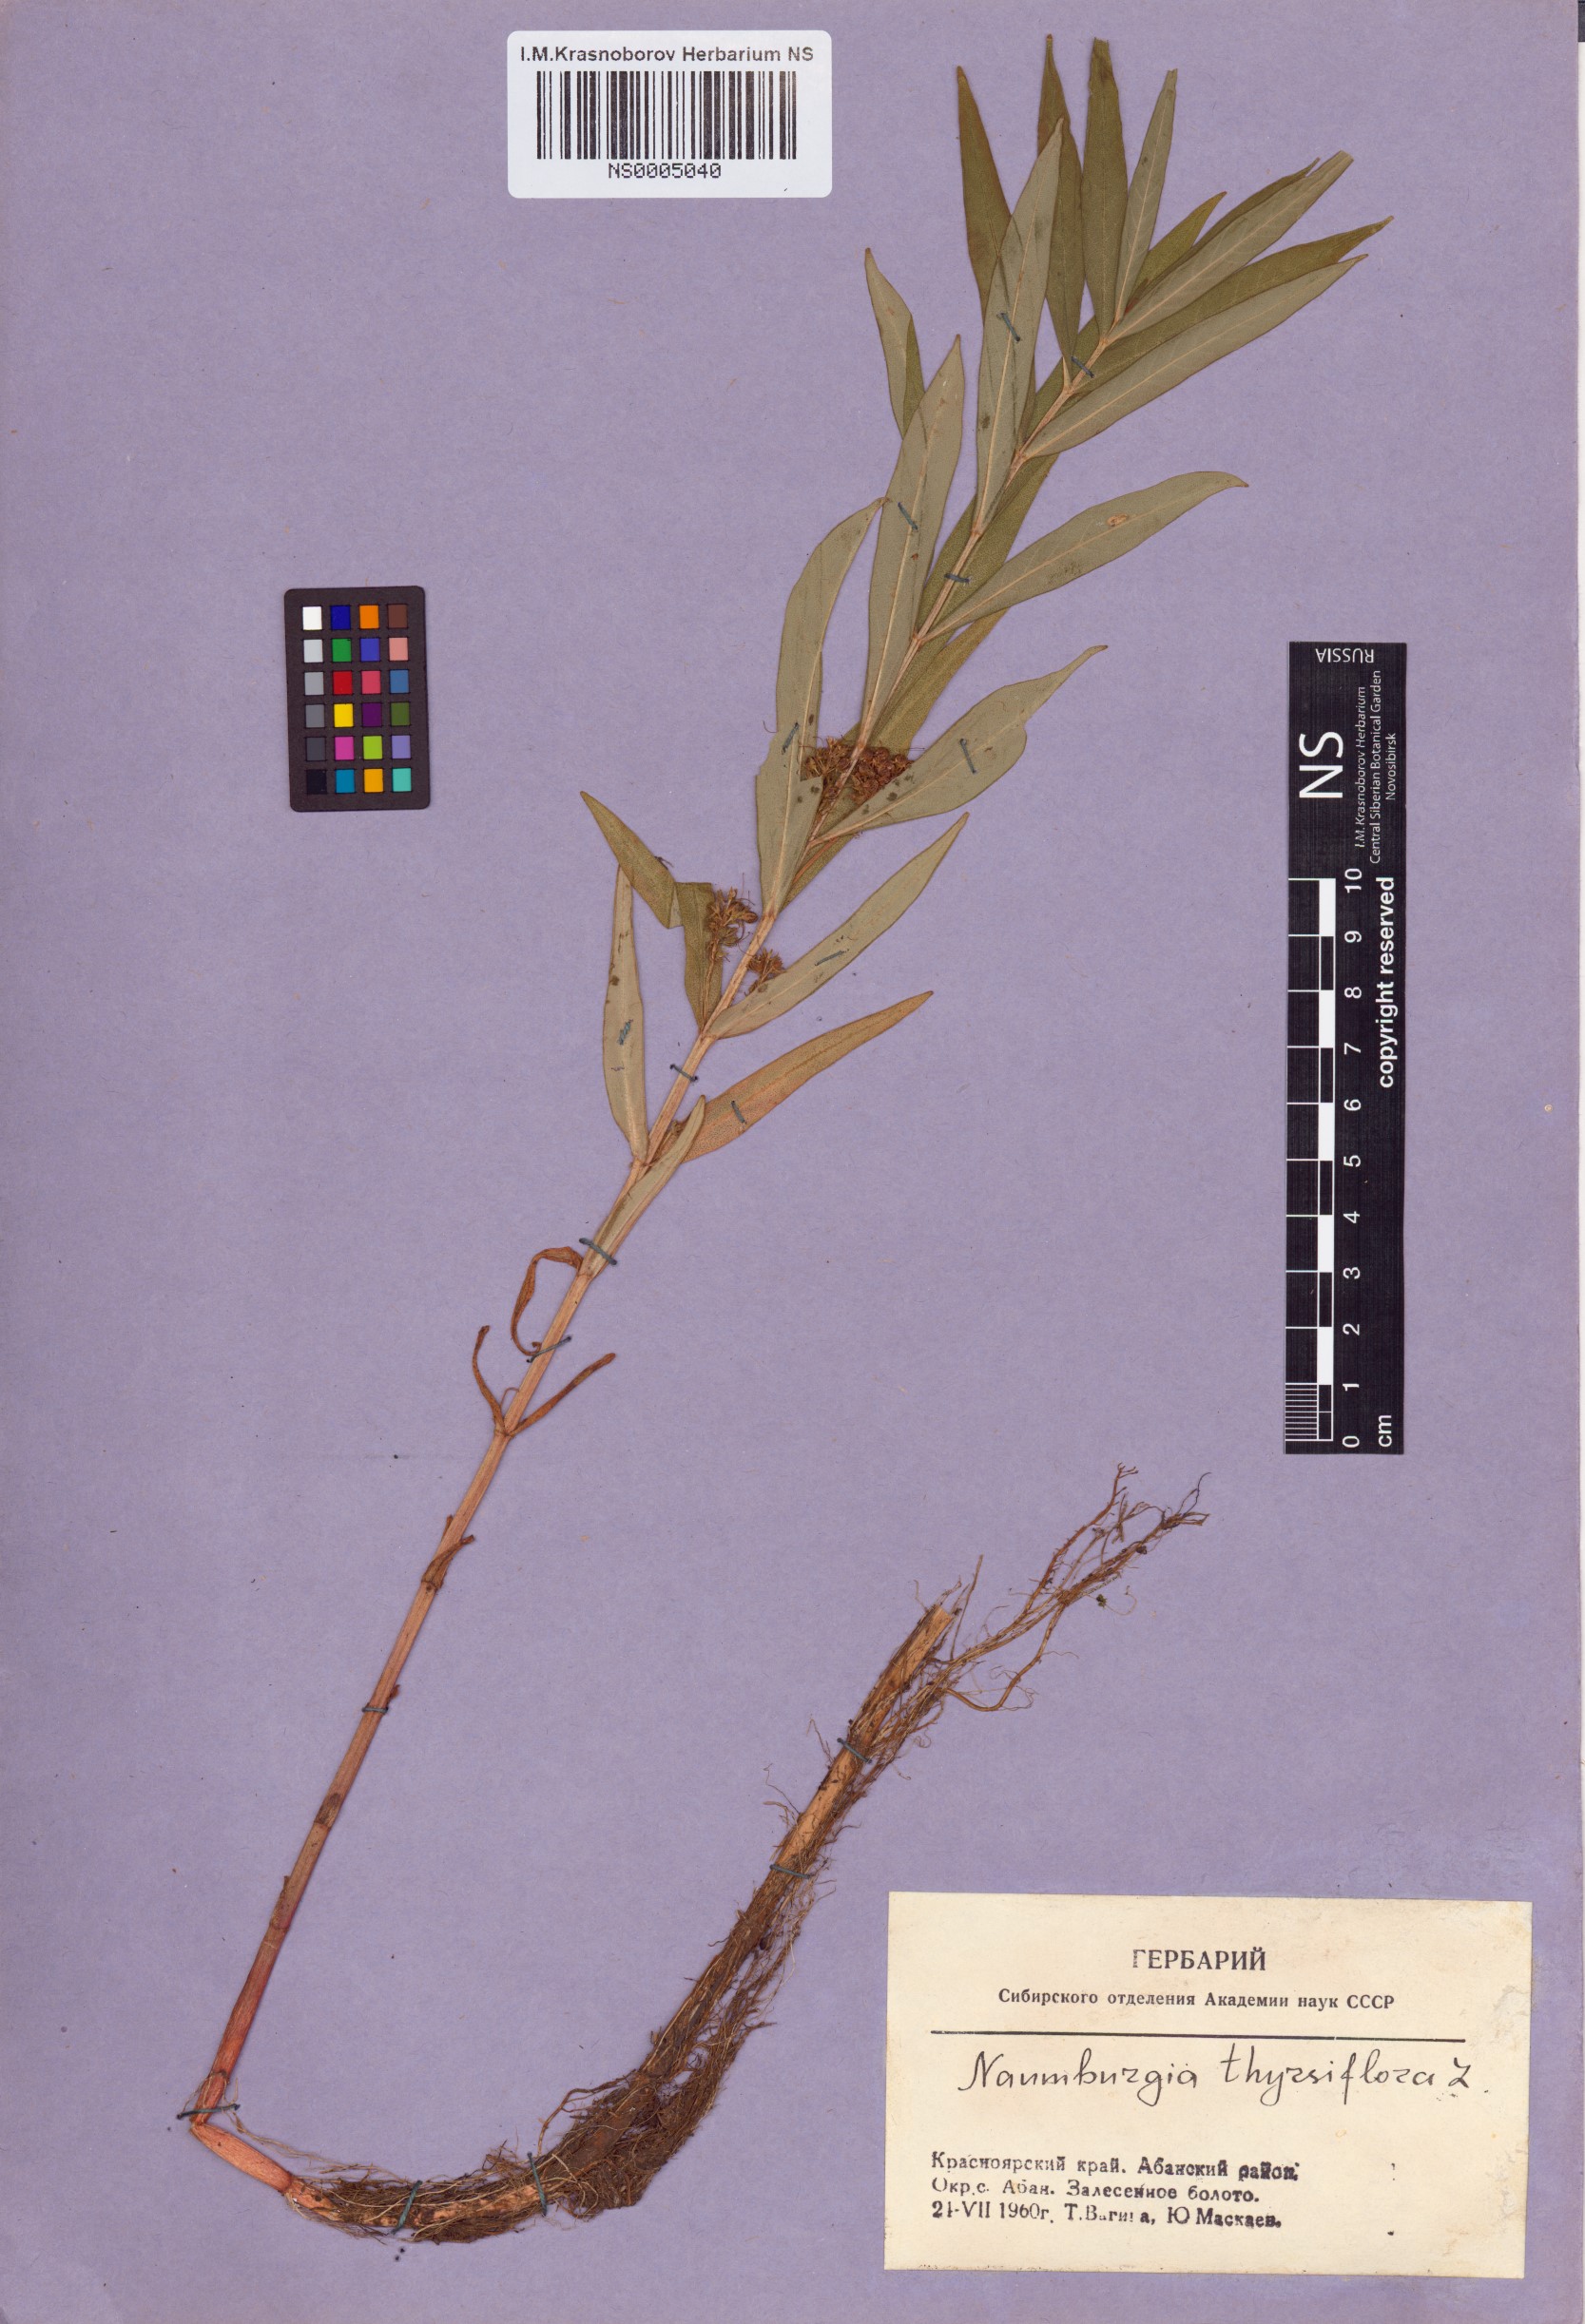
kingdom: Plantae
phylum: Tracheophyta
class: Magnoliopsida
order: Ericales
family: Primulaceae
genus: Lysimachia
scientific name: Lysimachia thyrsiflora
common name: Tufted loosestrife
